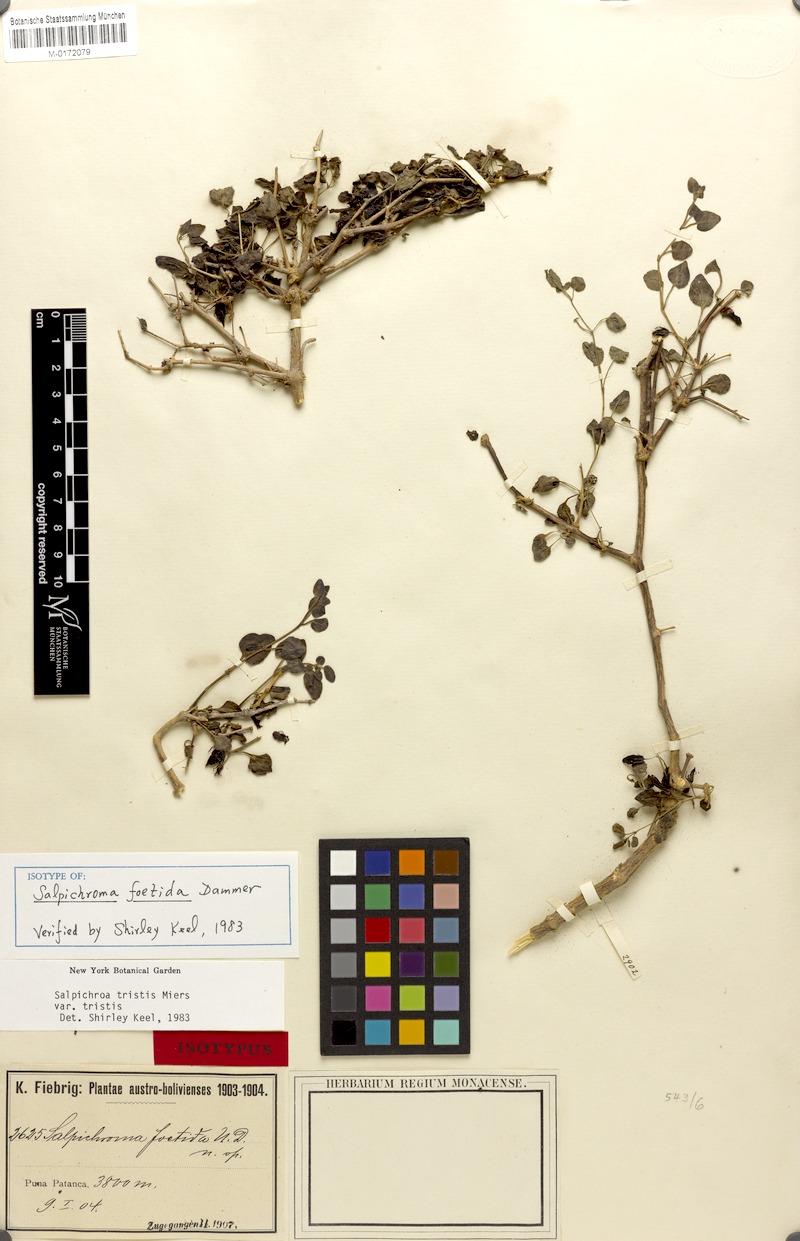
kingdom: Plantae
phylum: Tracheophyta
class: Magnoliopsida
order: Solanales
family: Solanaceae
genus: Salpichroa
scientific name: Salpichroa tristis
